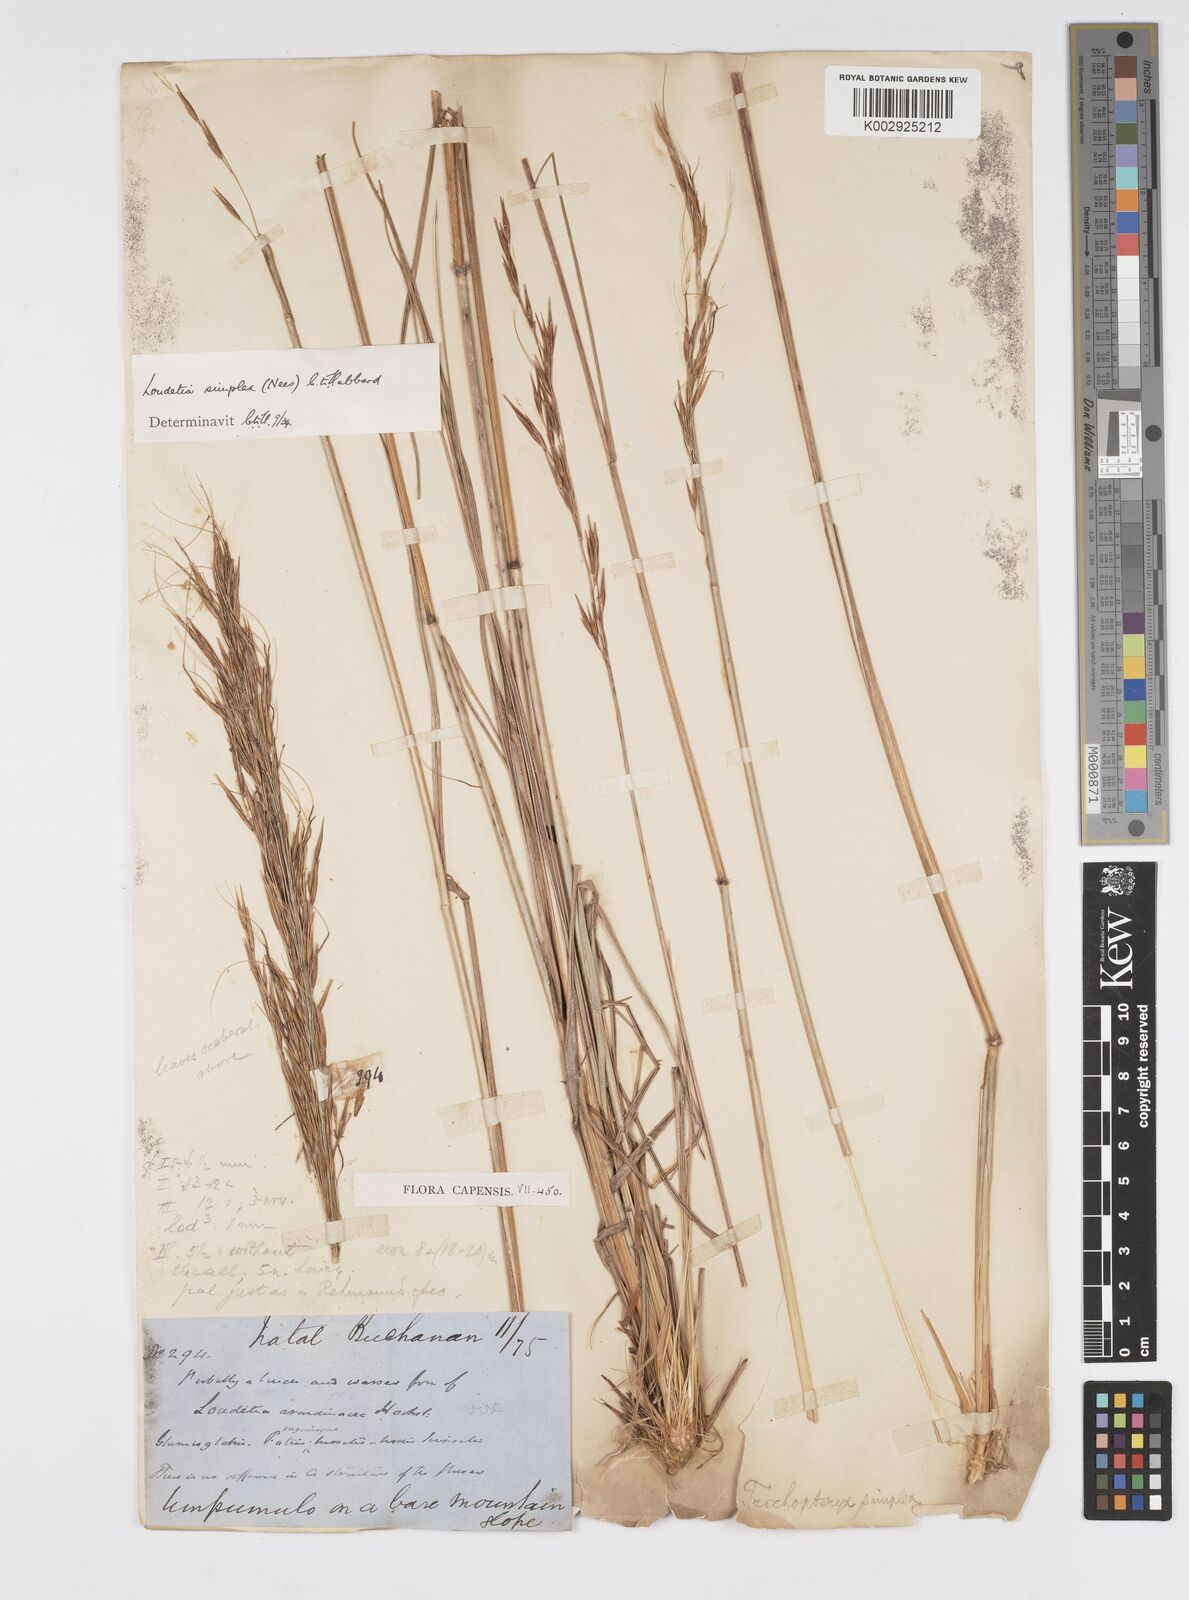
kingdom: Plantae
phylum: Tracheophyta
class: Liliopsida
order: Poales
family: Poaceae
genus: Loudetia
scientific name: Loudetia simplex
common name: Common russet grass
